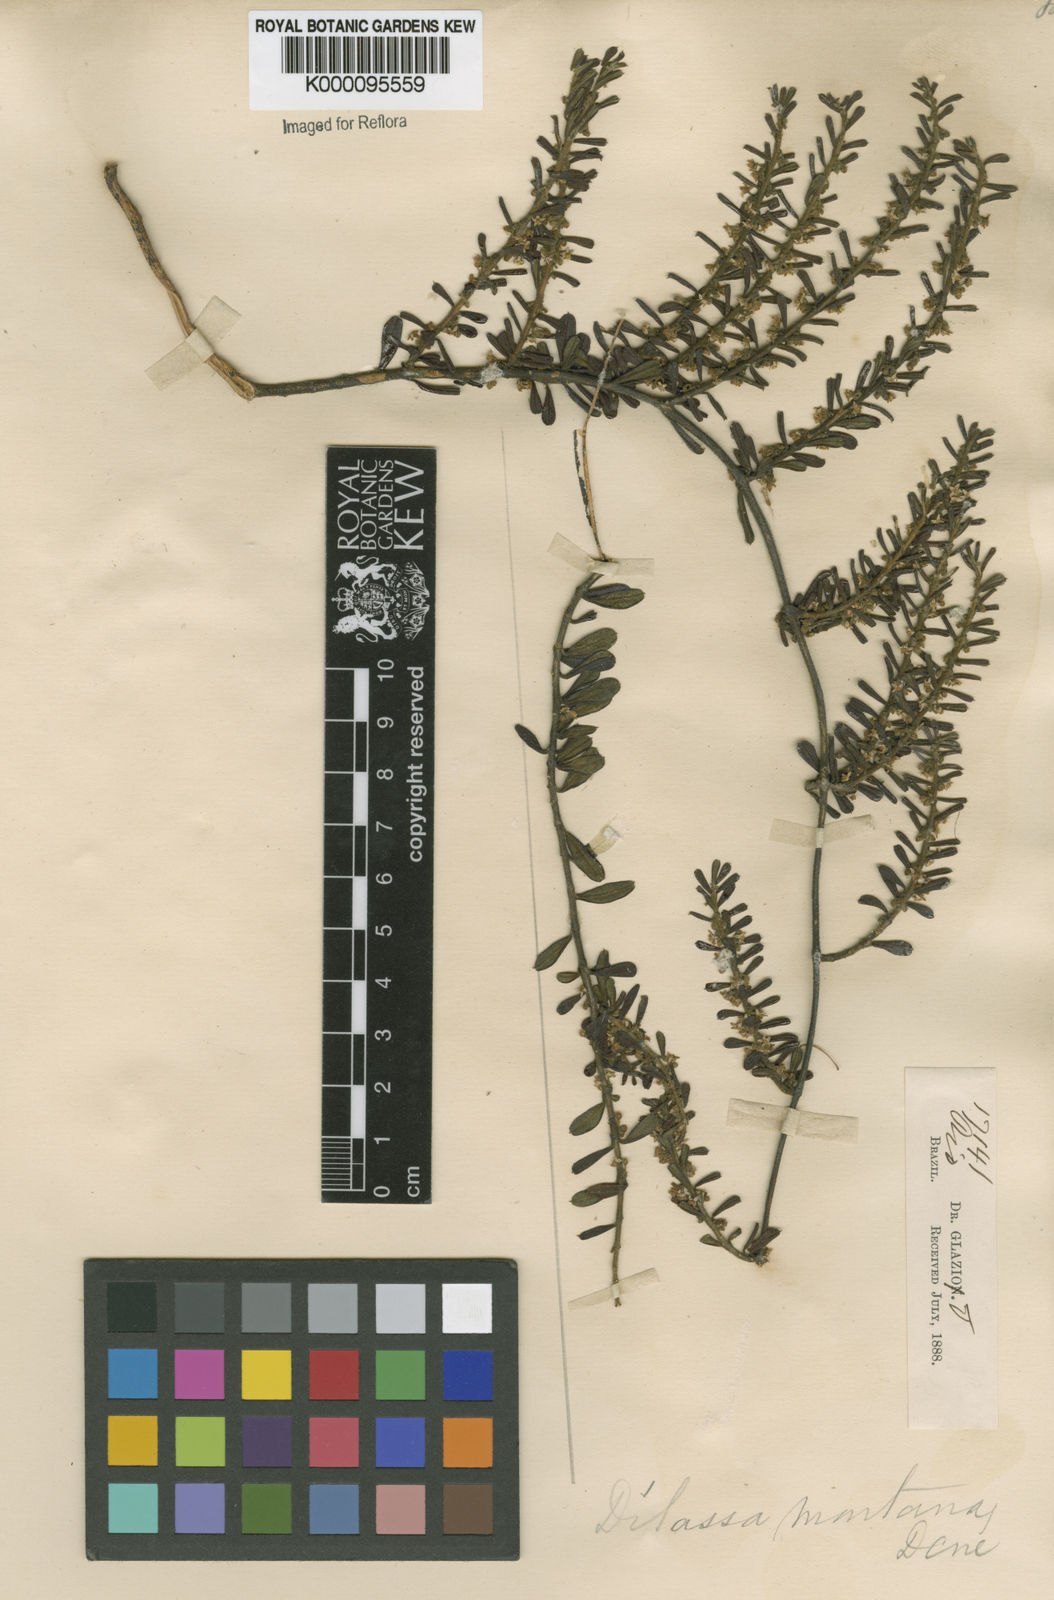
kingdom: Plantae
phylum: Tracheophyta
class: Magnoliopsida
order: Gentianales
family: Apocynaceae
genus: Ditassa
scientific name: Ditassa mucronata
